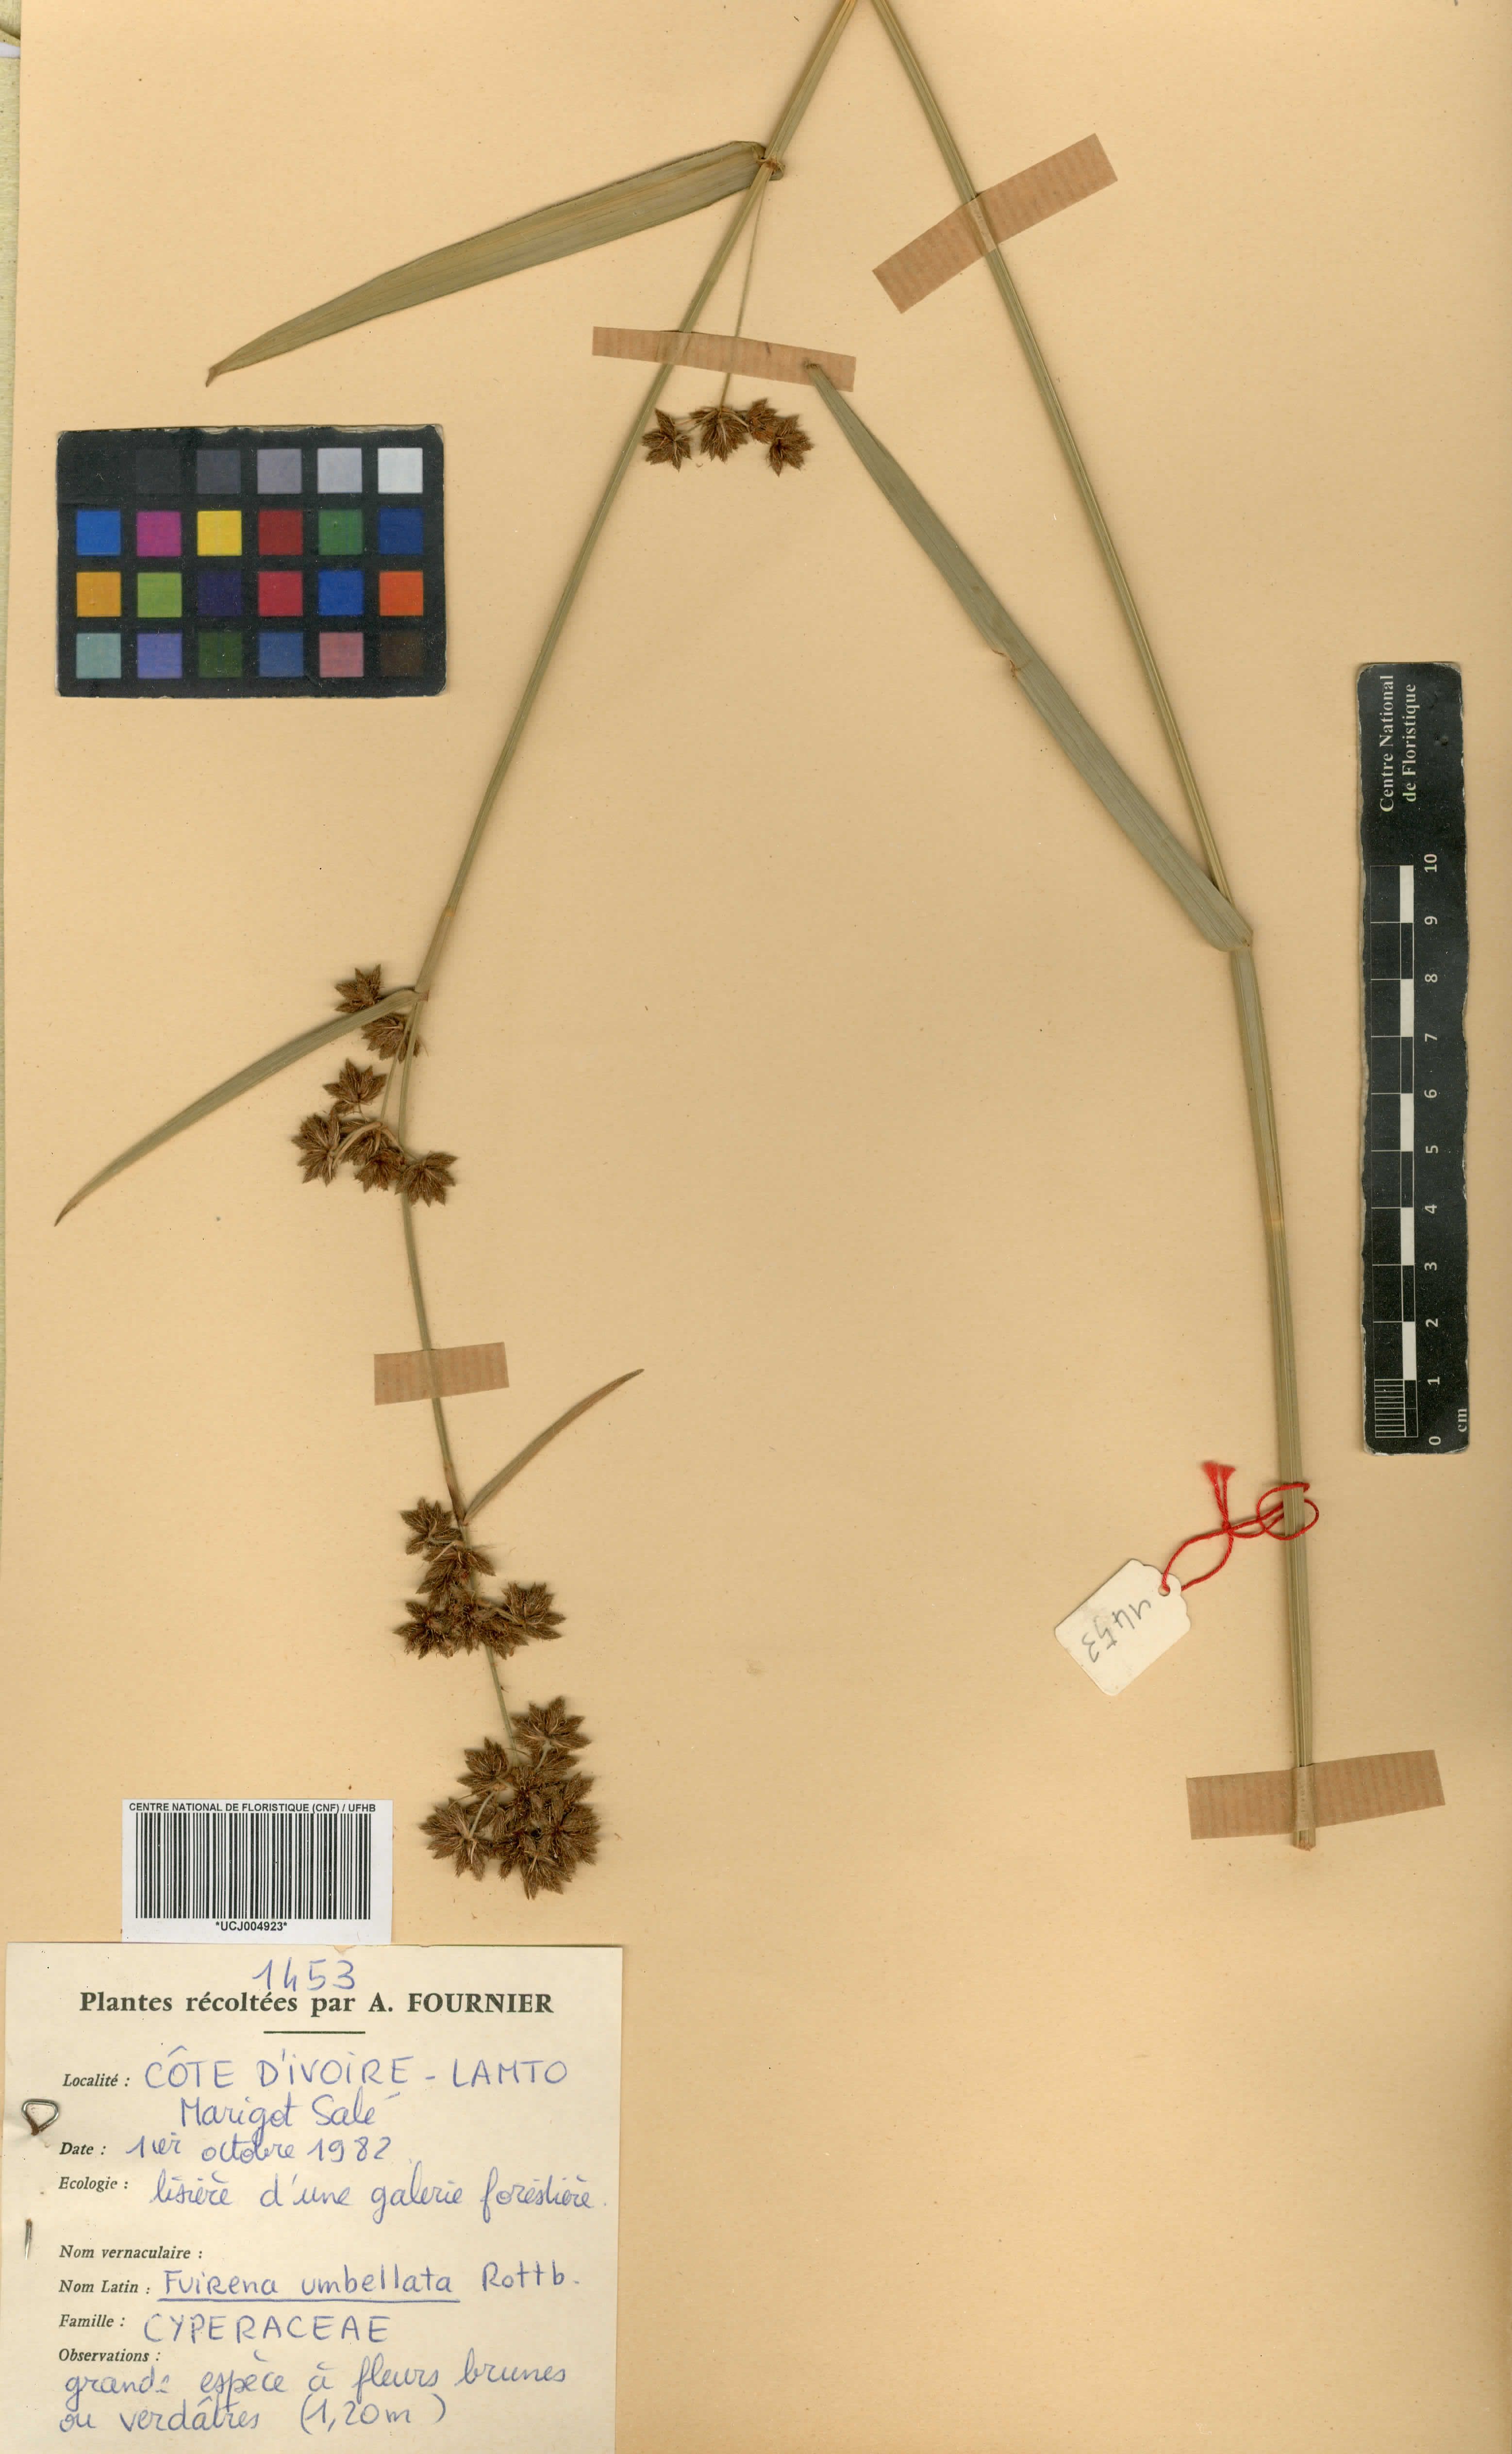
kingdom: Plantae
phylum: Tracheophyta
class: Liliopsida
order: Poales
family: Cyperaceae
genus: Fuirena
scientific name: Fuirena umbellata
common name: Yefen
